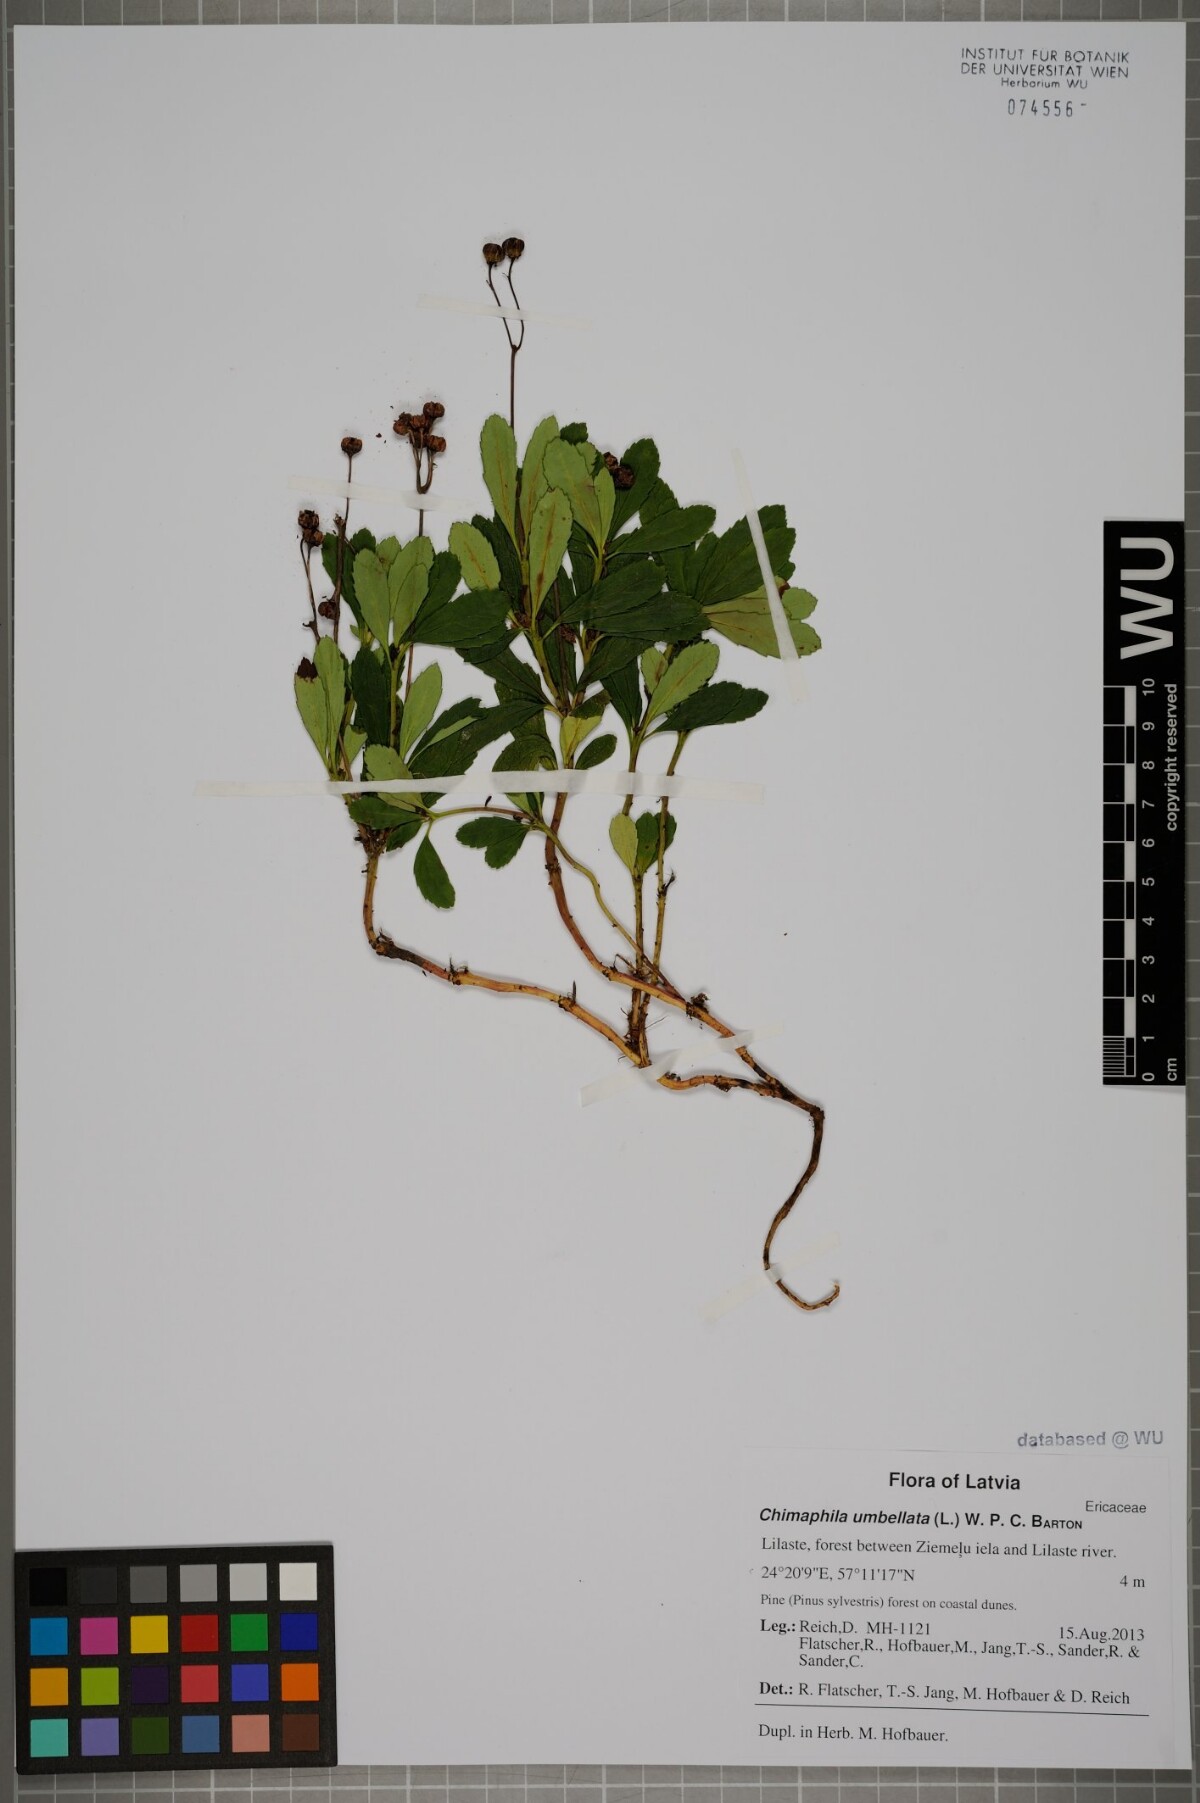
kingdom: Plantae
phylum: Tracheophyta
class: Magnoliopsida
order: Ericales
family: Ericaceae
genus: Chimaphila
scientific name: Chimaphila umbellata
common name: Pipsissewa
